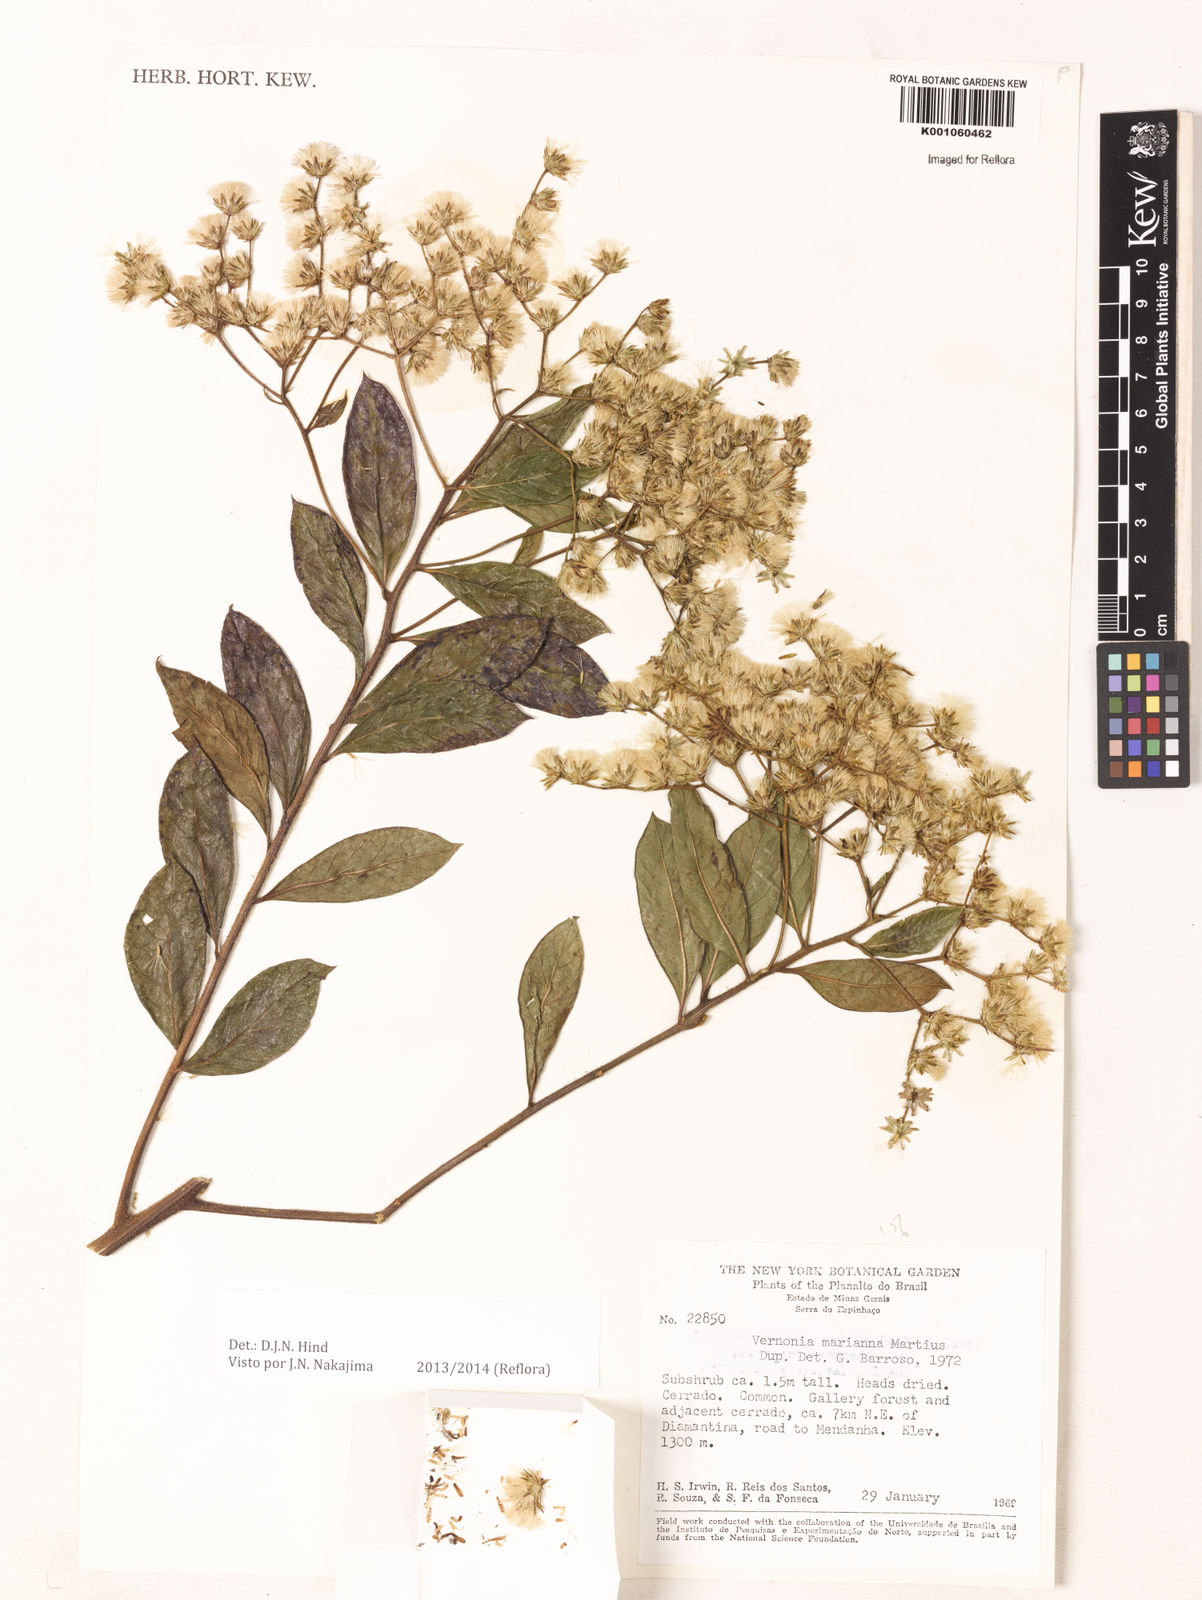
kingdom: Plantae
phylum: Tracheophyta
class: Magnoliopsida
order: Asterales
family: Asteraceae
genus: Vernonanthura
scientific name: Vernonanthura cymosa
